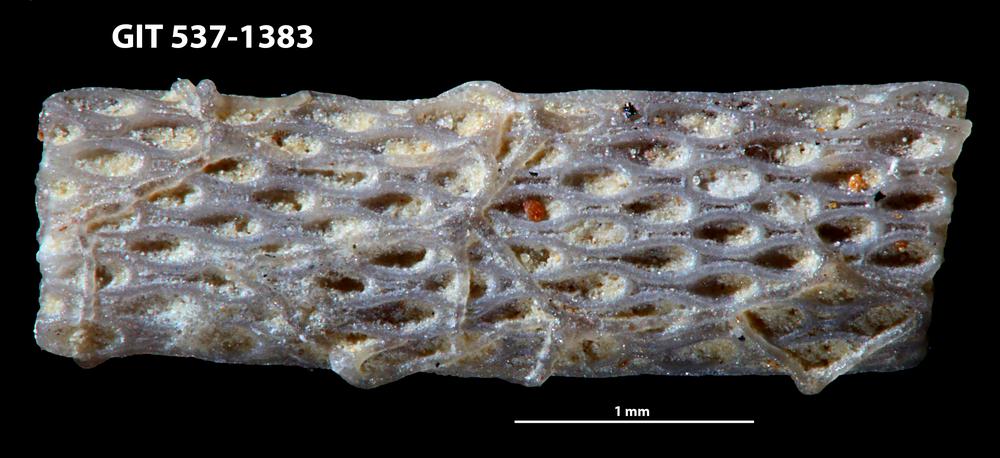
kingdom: Animalia
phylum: Bryozoa
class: Stenolaemata
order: Cyclostomatida
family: Corynotrypidae
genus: Corynotrypa
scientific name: Corynotrypa
